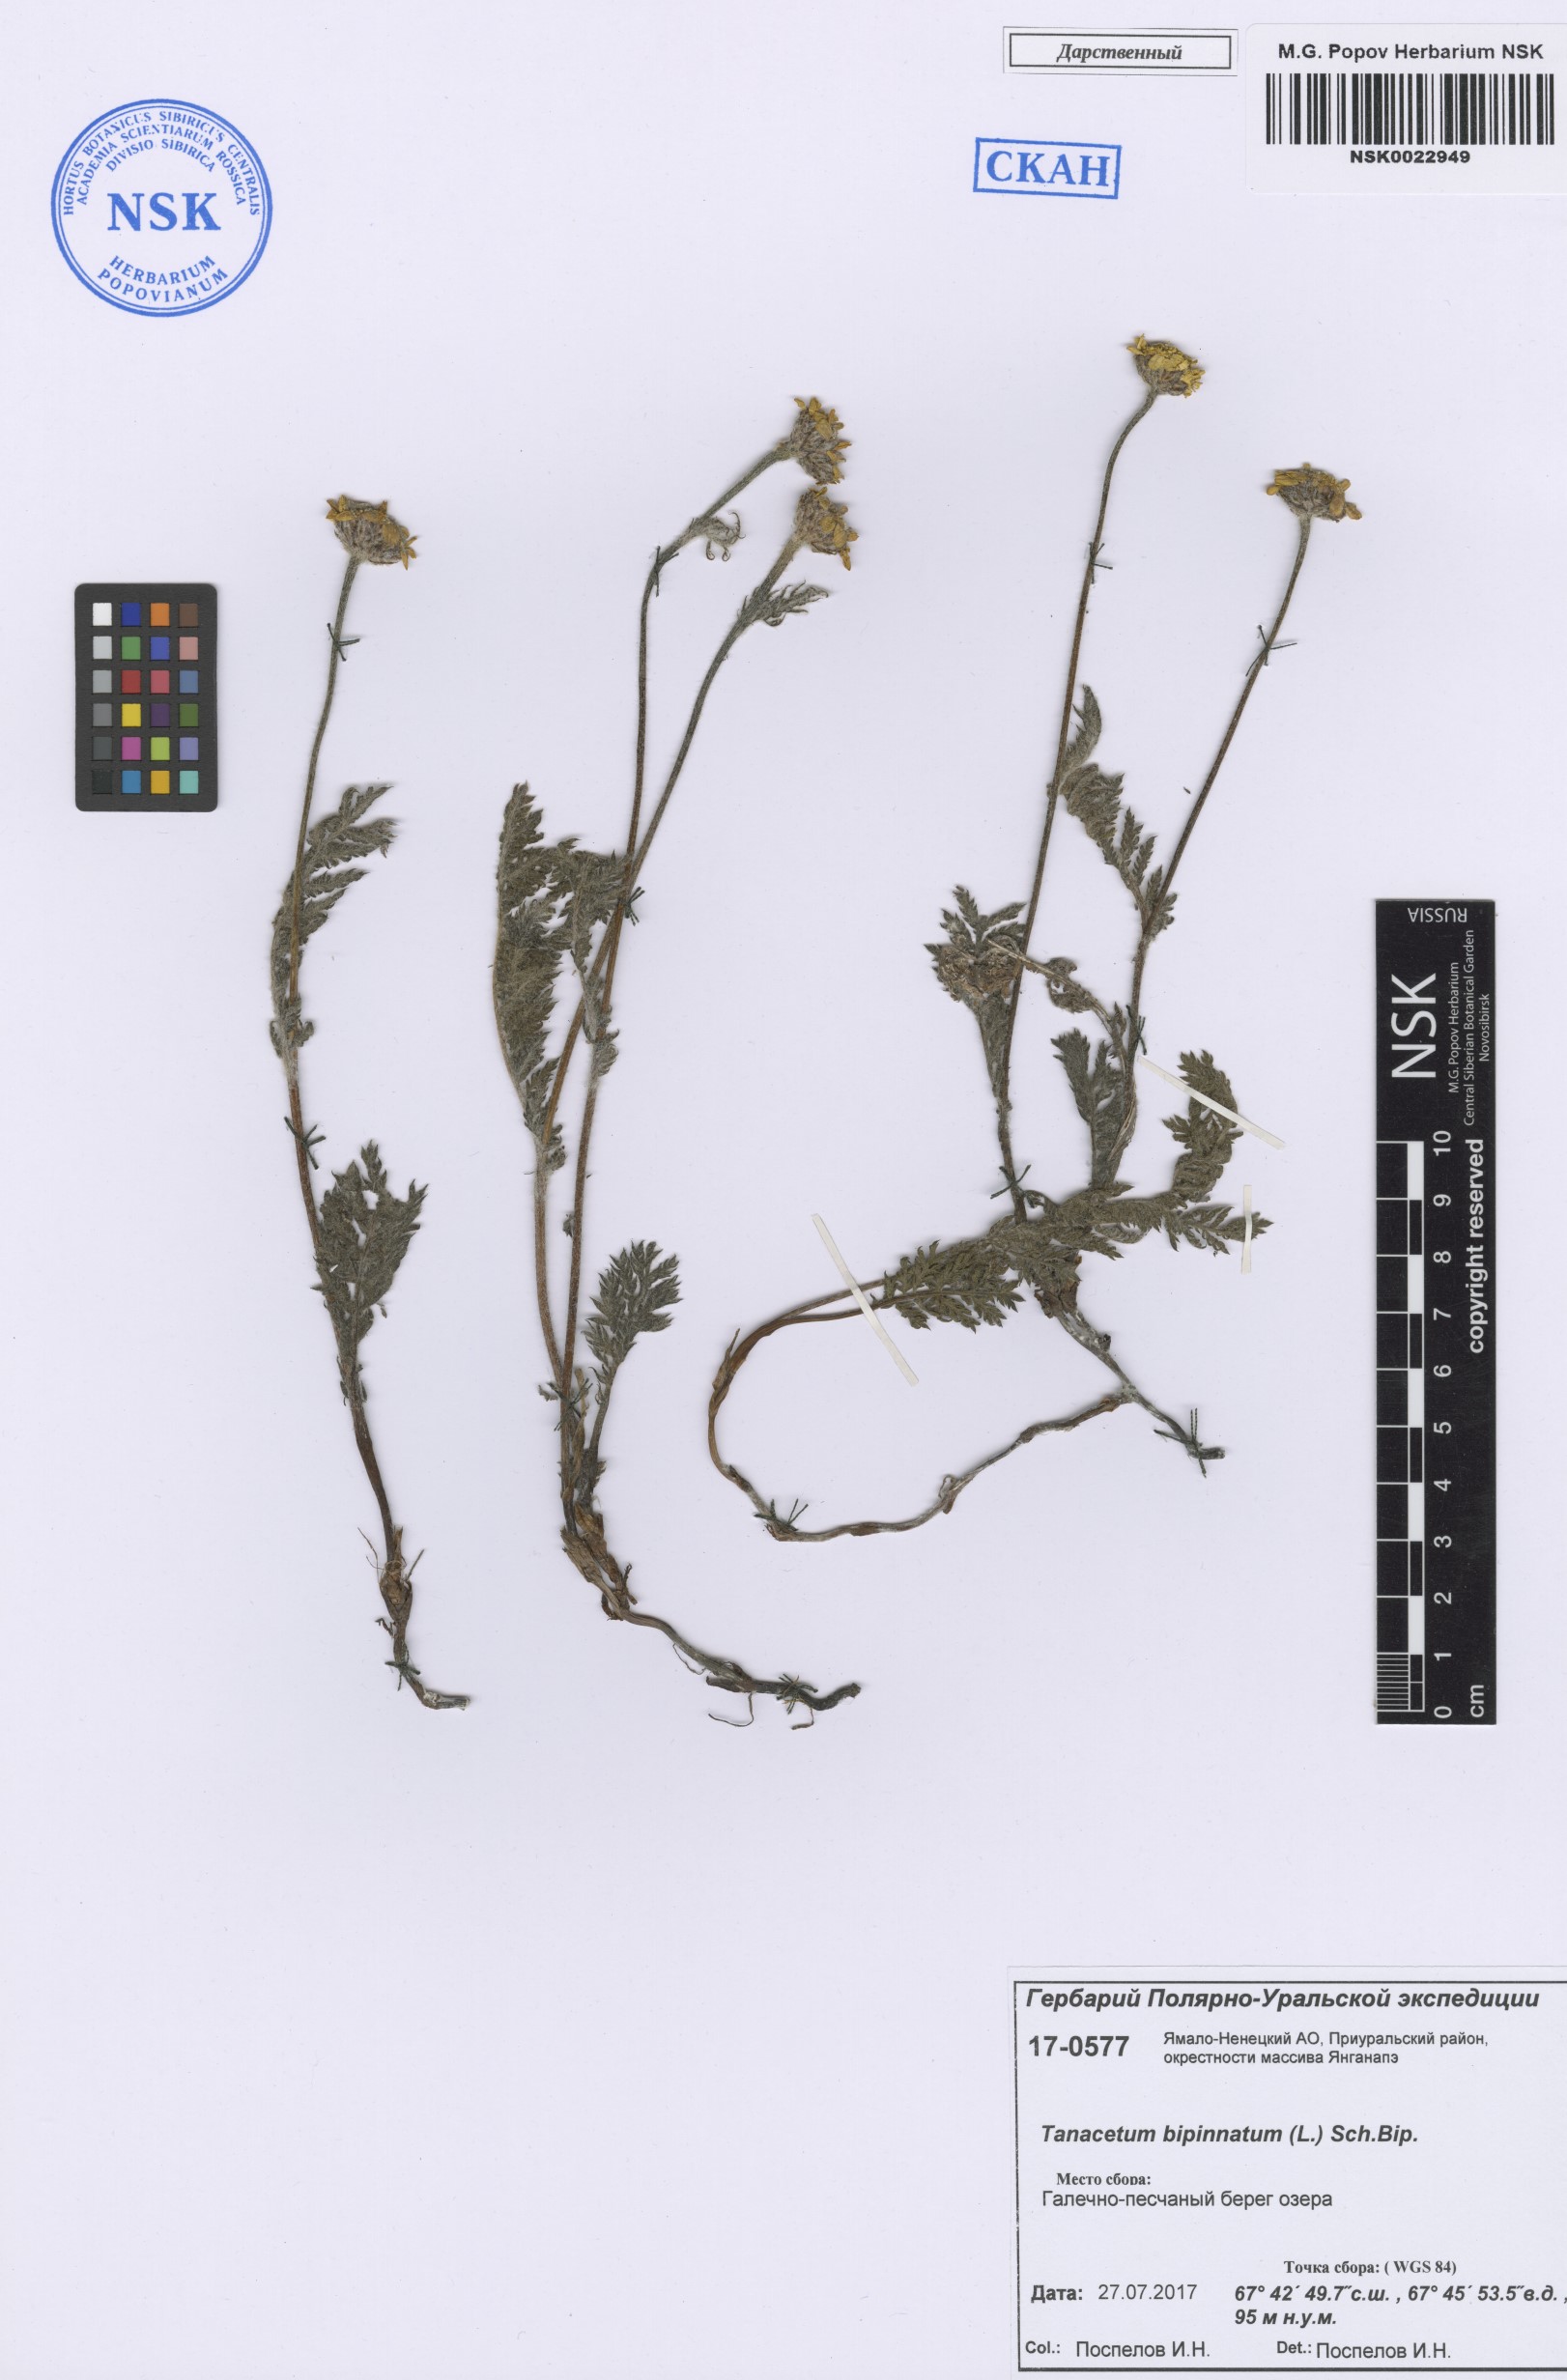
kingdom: Plantae
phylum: Tracheophyta
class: Magnoliopsida
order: Asterales
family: Asteraceae
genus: Tanacetum
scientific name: Tanacetum bipinnatum
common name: Dwarf tansy
